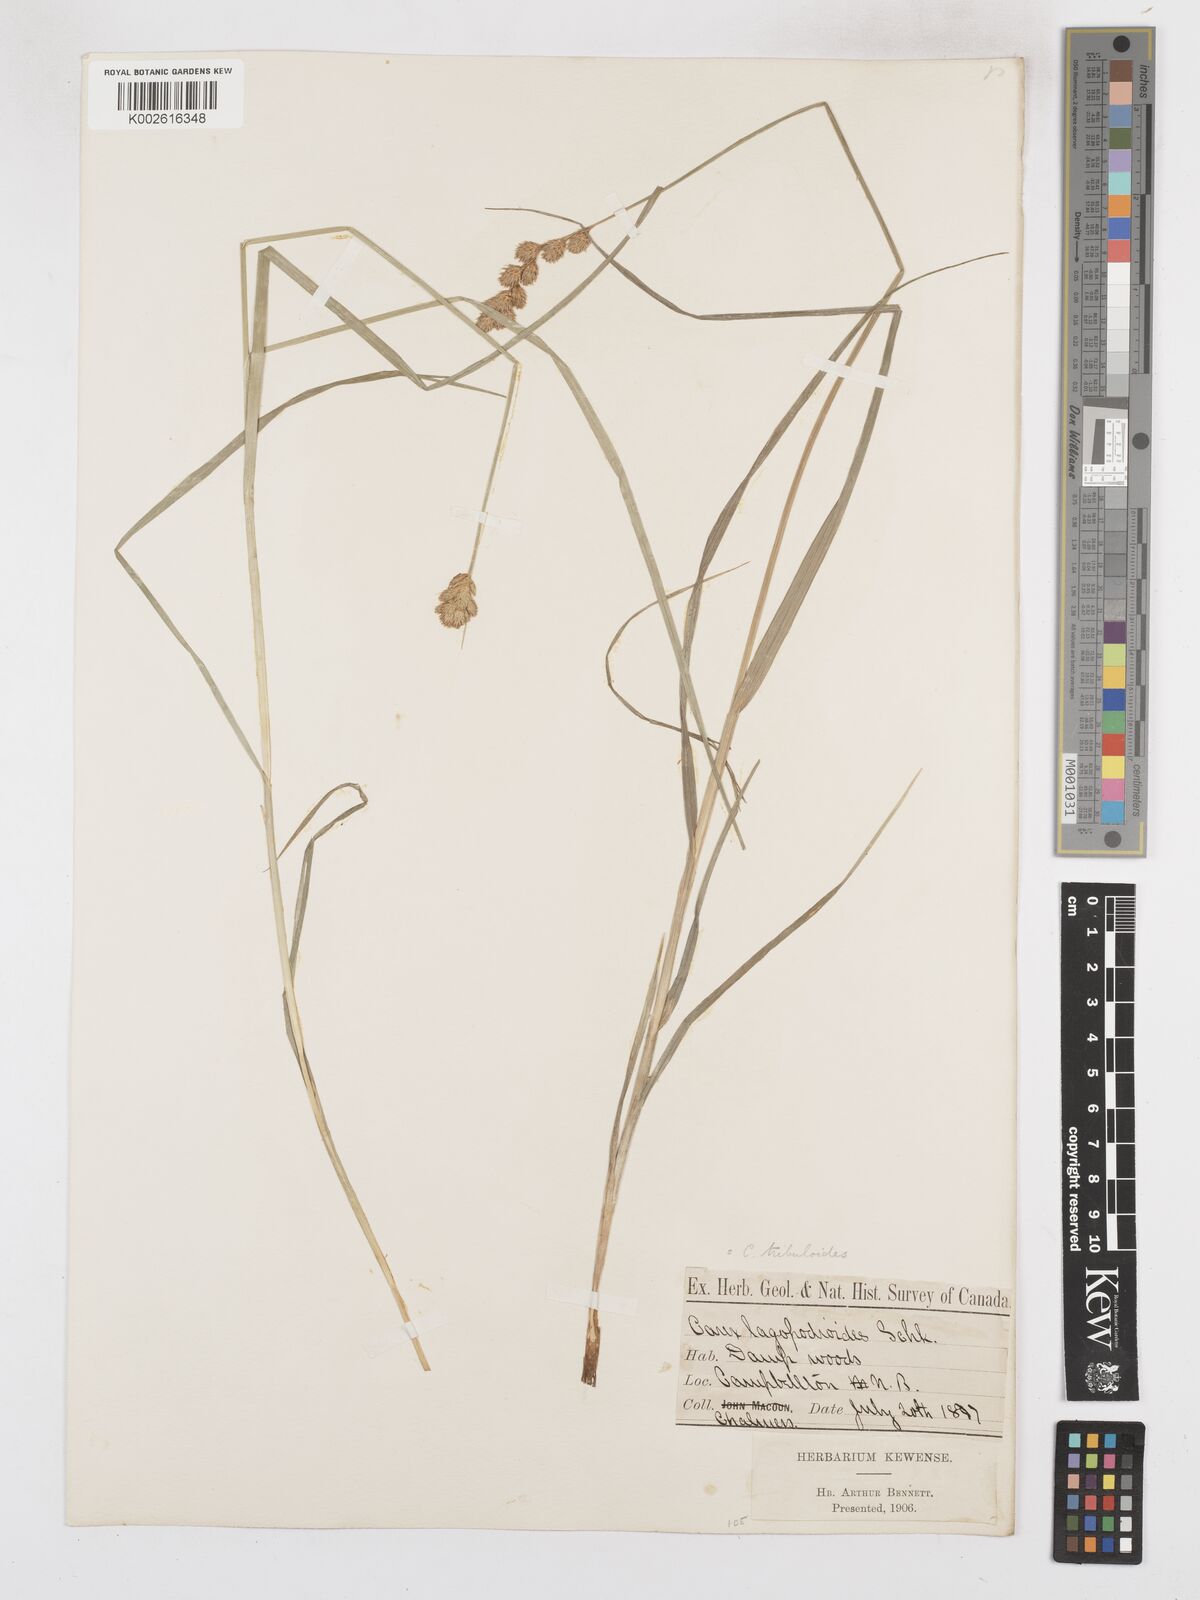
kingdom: Plantae
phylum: Tracheophyta
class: Liliopsida
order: Poales
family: Cyperaceae
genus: Carex
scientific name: Carex tribuloides
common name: Blunt broom sedge
